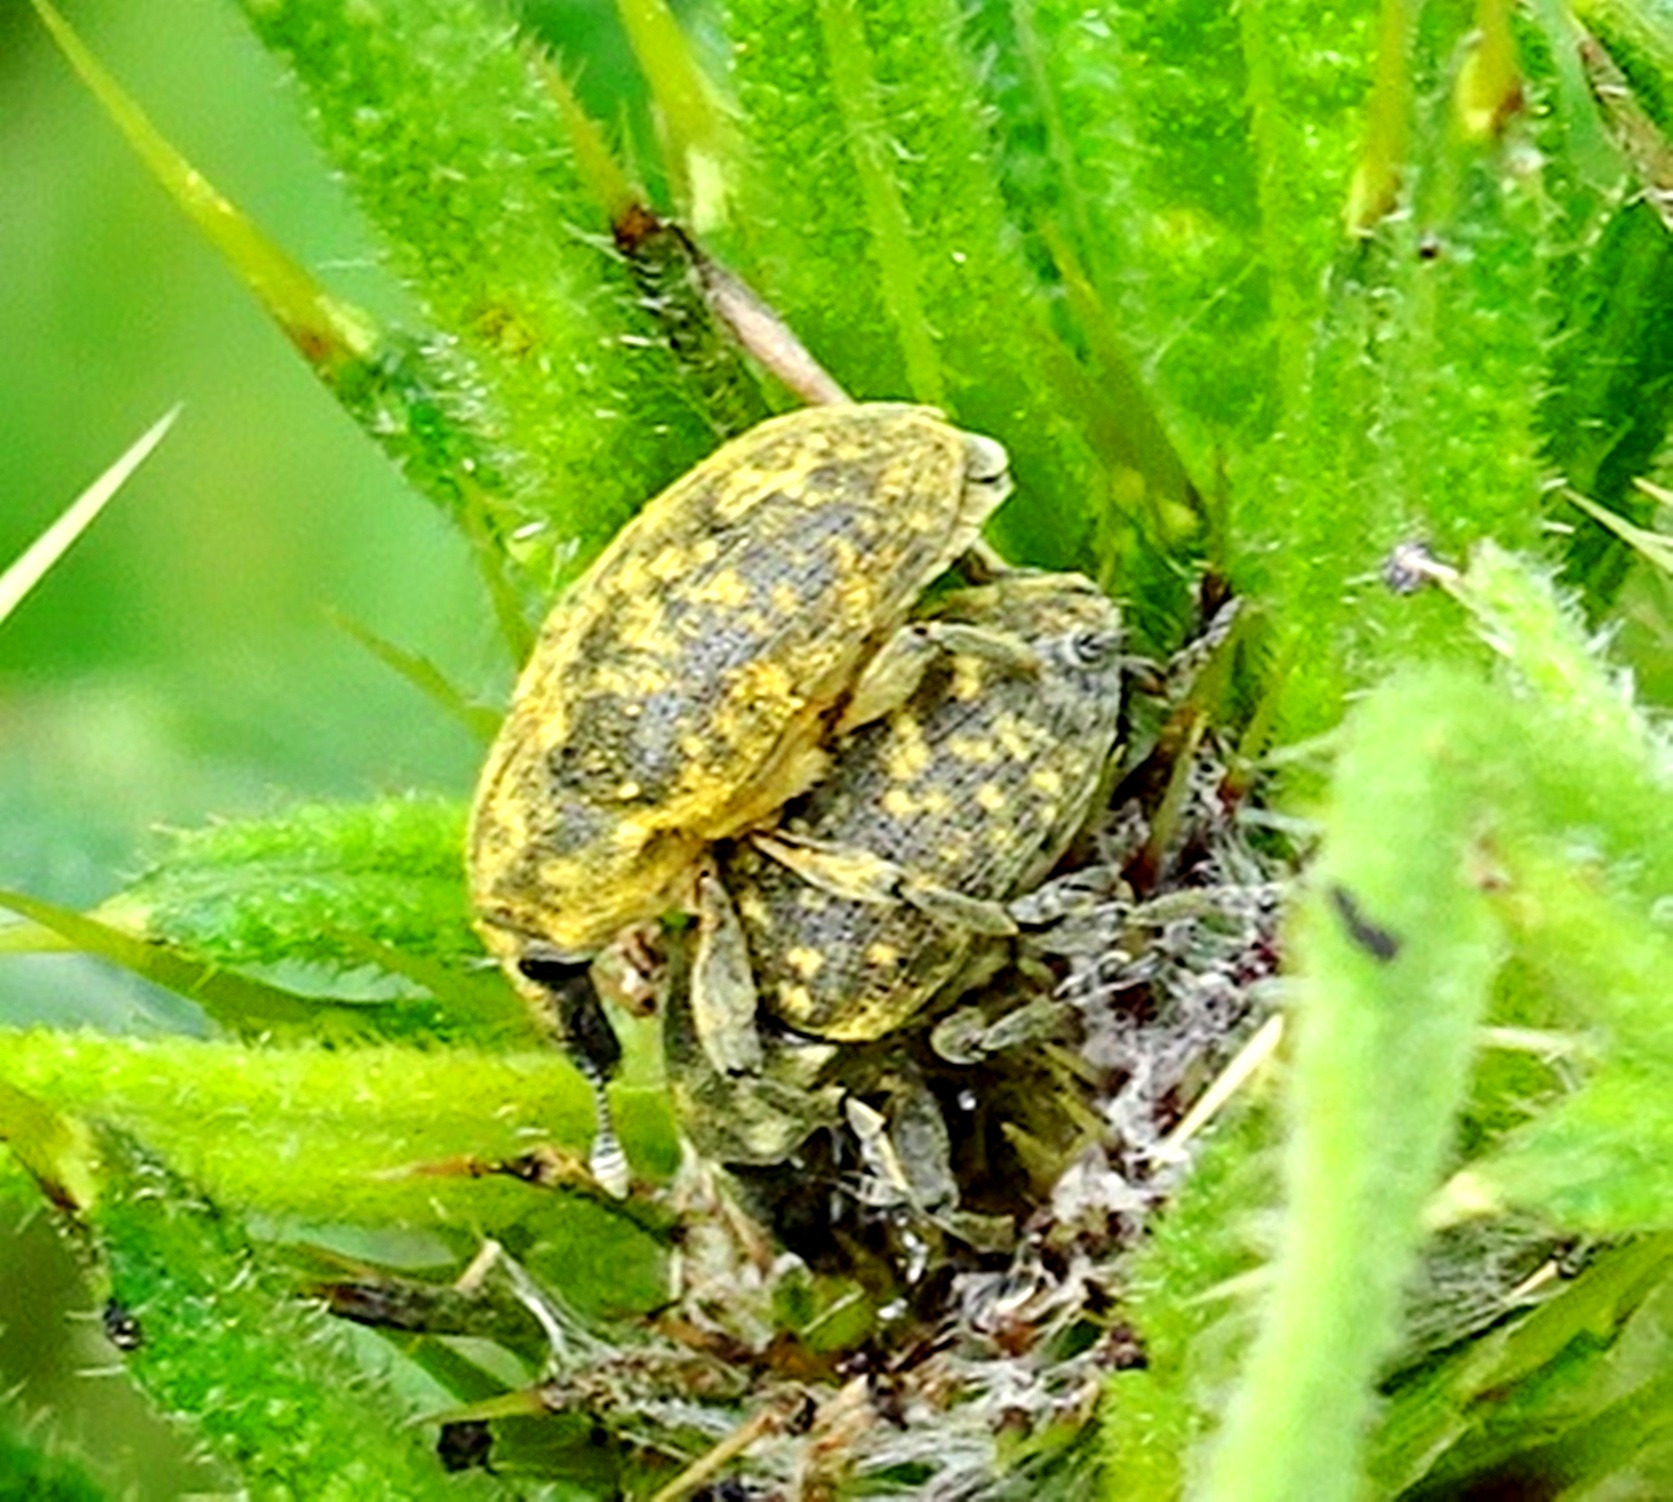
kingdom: Animalia
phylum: Arthropoda
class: Insecta
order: Coleoptera
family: Curculionidae
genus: Larinus
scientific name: Larinus turbinatus
